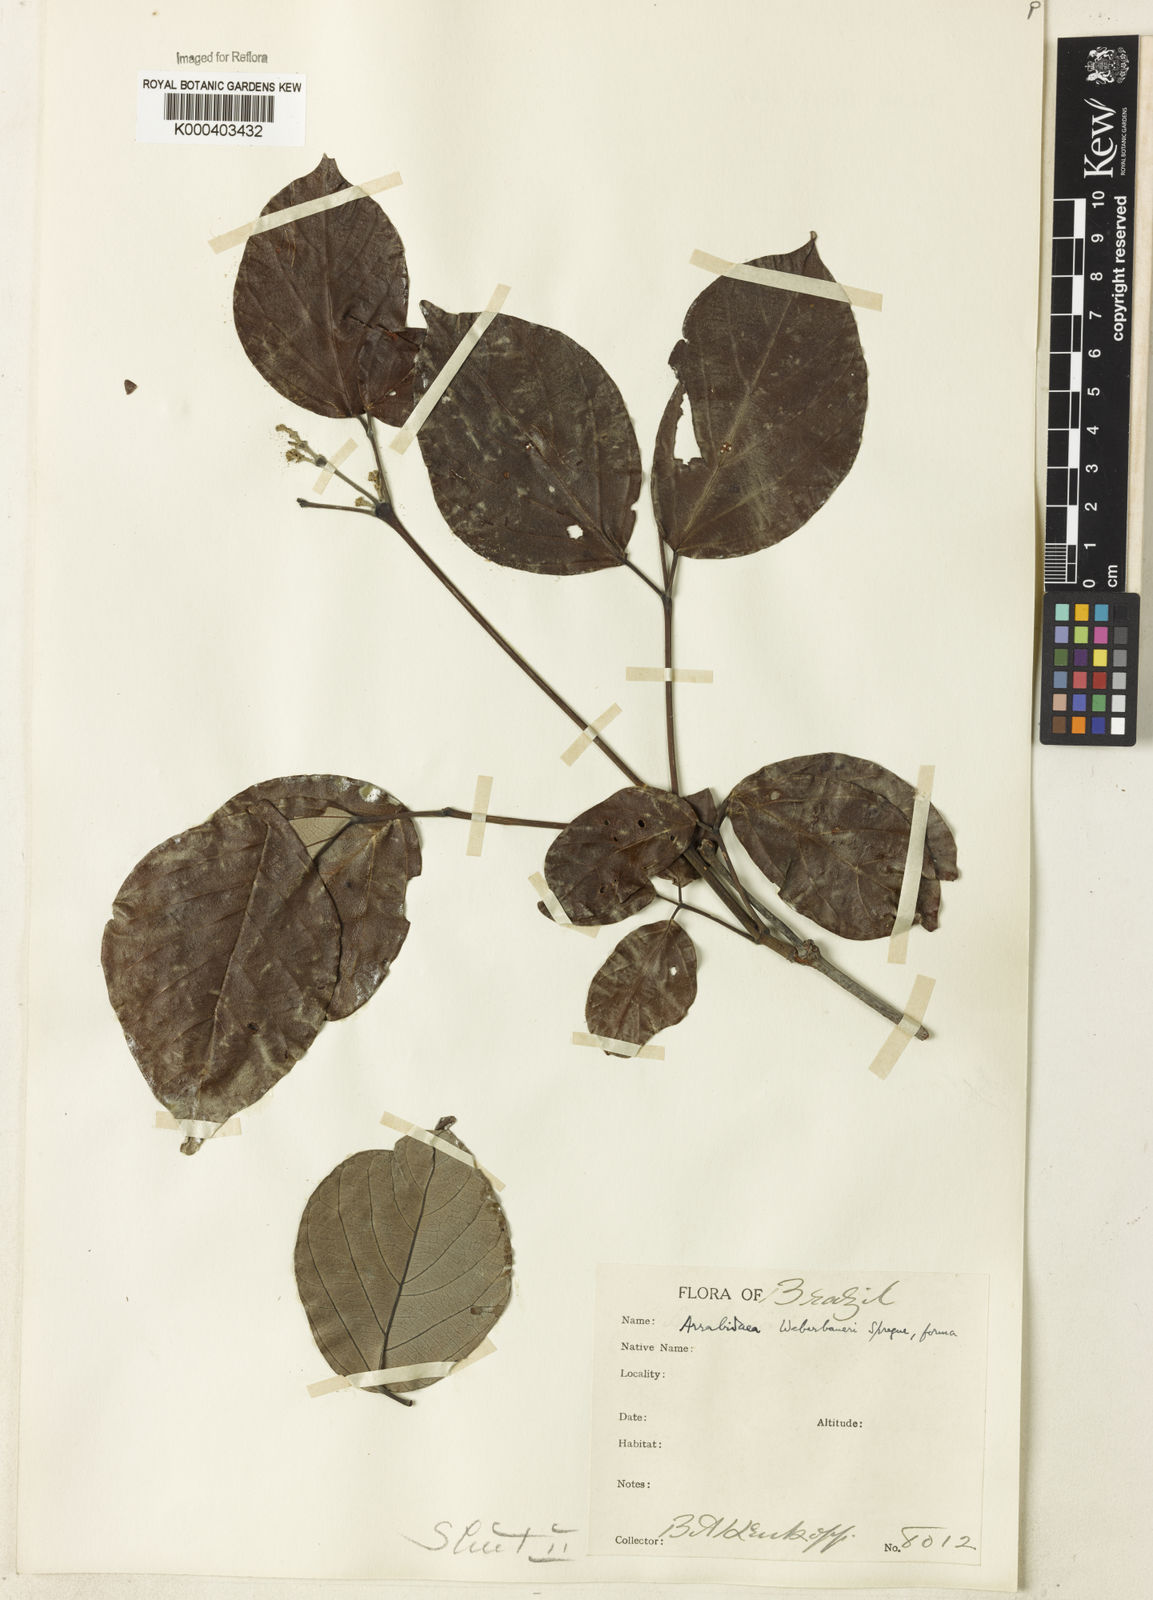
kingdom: Plantae
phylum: Tracheophyta
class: Magnoliopsida
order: Lamiales
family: Bignoniaceae
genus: Cuspidaria
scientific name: Cuspidaria weberbaueri
